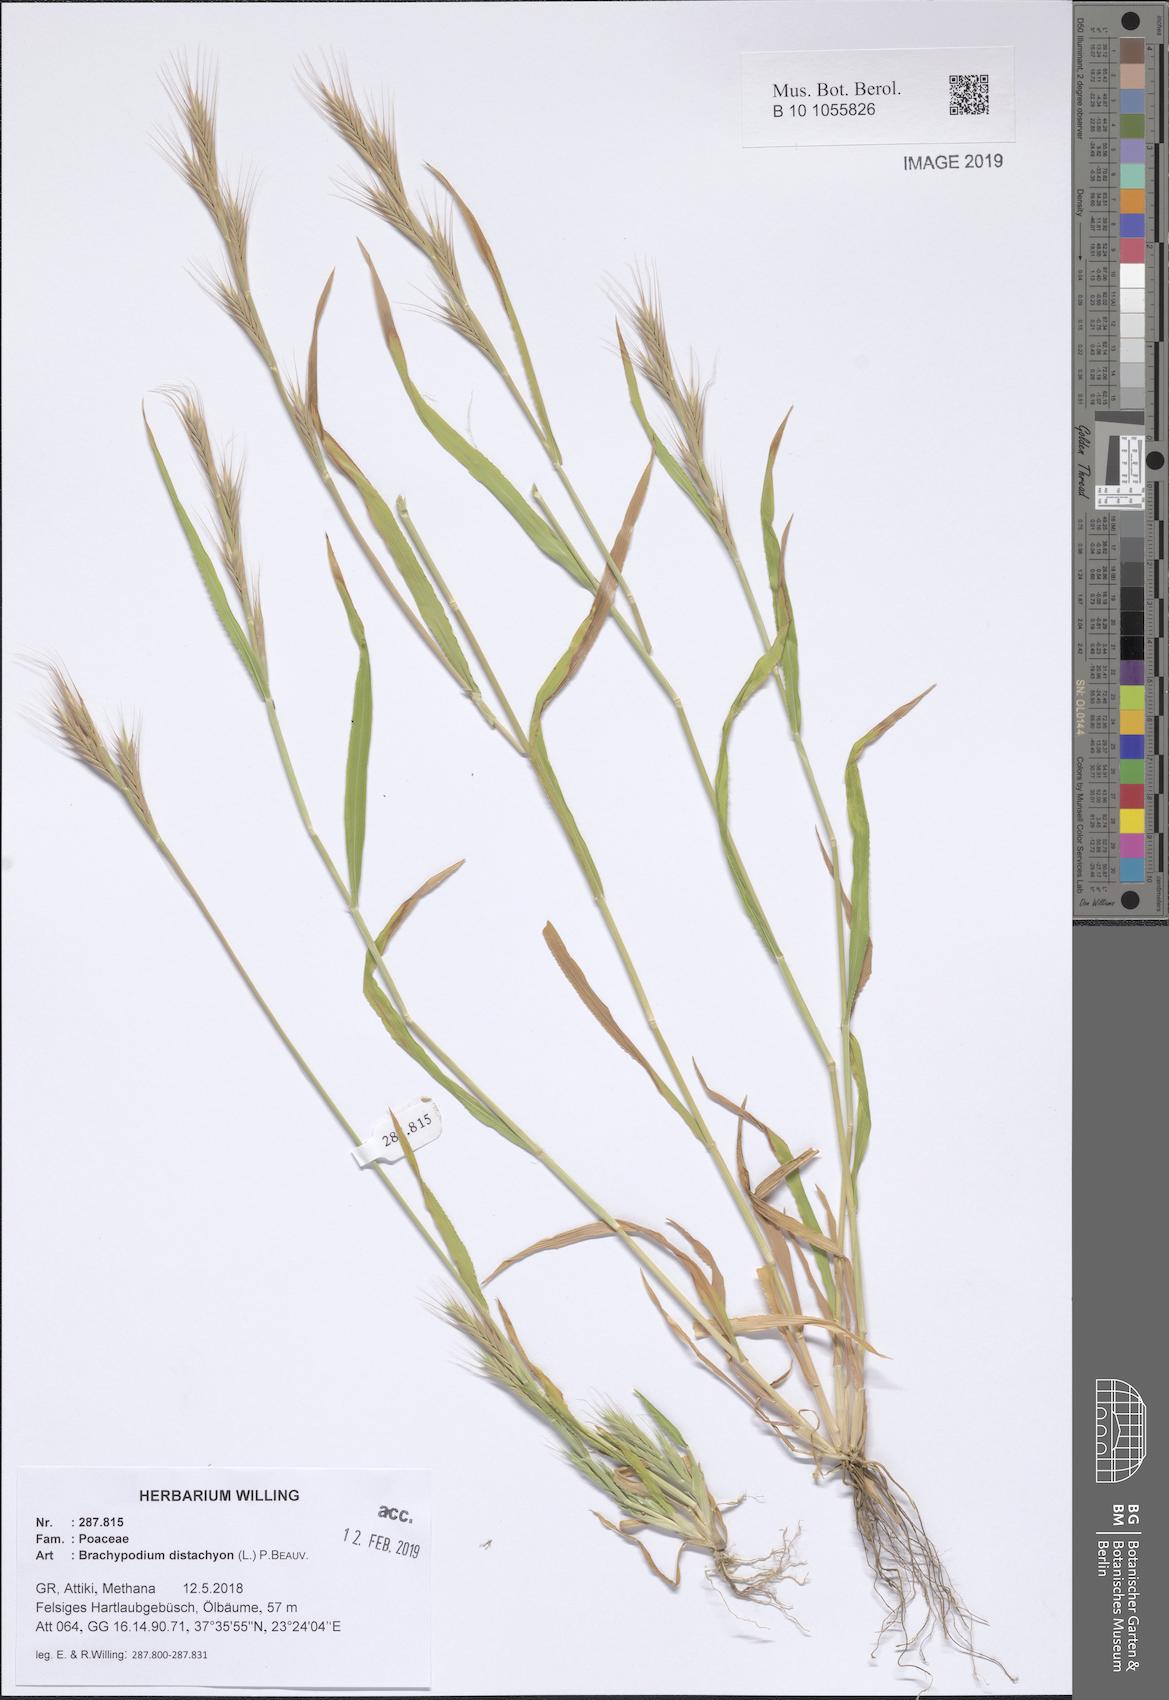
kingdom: Plantae
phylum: Tracheophyta
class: Liliopsida
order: Poales
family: Poaceae
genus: Brachypodium
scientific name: Brachypodium distachyon
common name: Stiff brome
